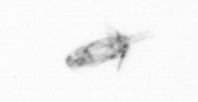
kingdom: Animalia
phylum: Arthropoda
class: Copepoda
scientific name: Copepoda
